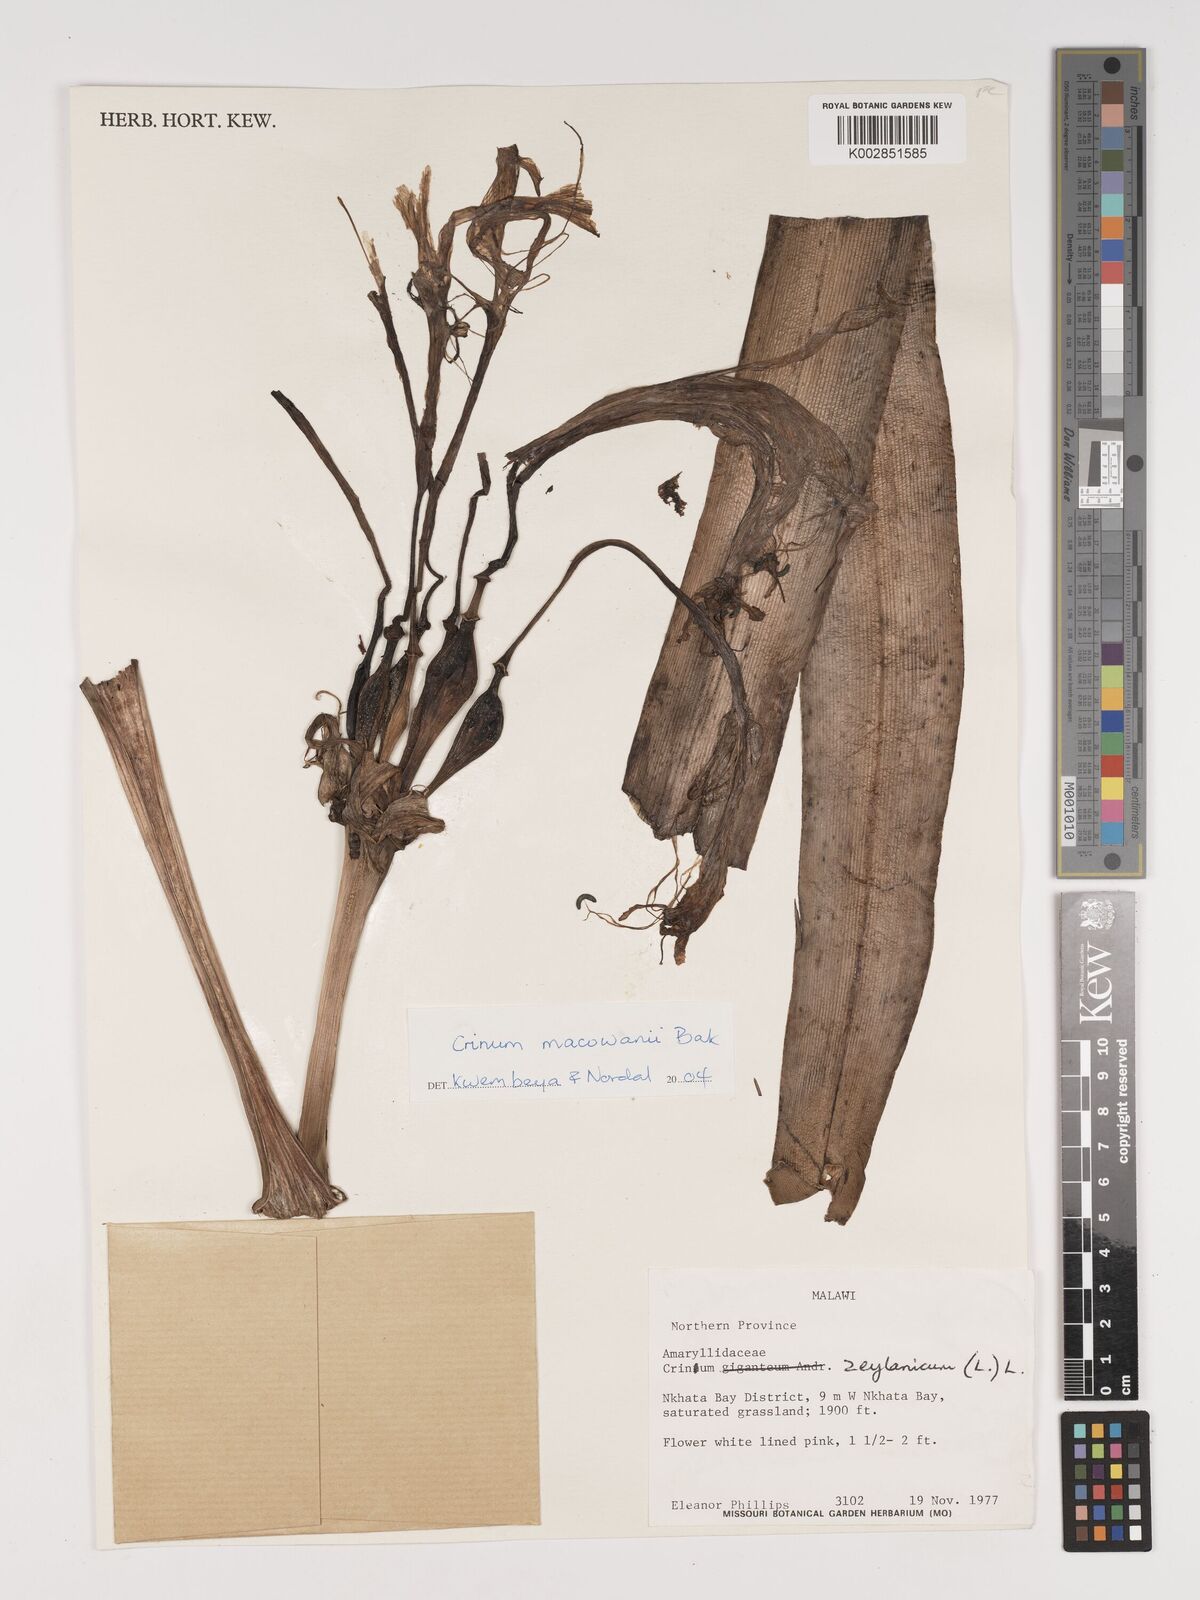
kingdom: Plantae
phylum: Tracheophyta
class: Liliopsida
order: Asparagales
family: Amaryllidaceae
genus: Crinum
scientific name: Crinum macowanii
